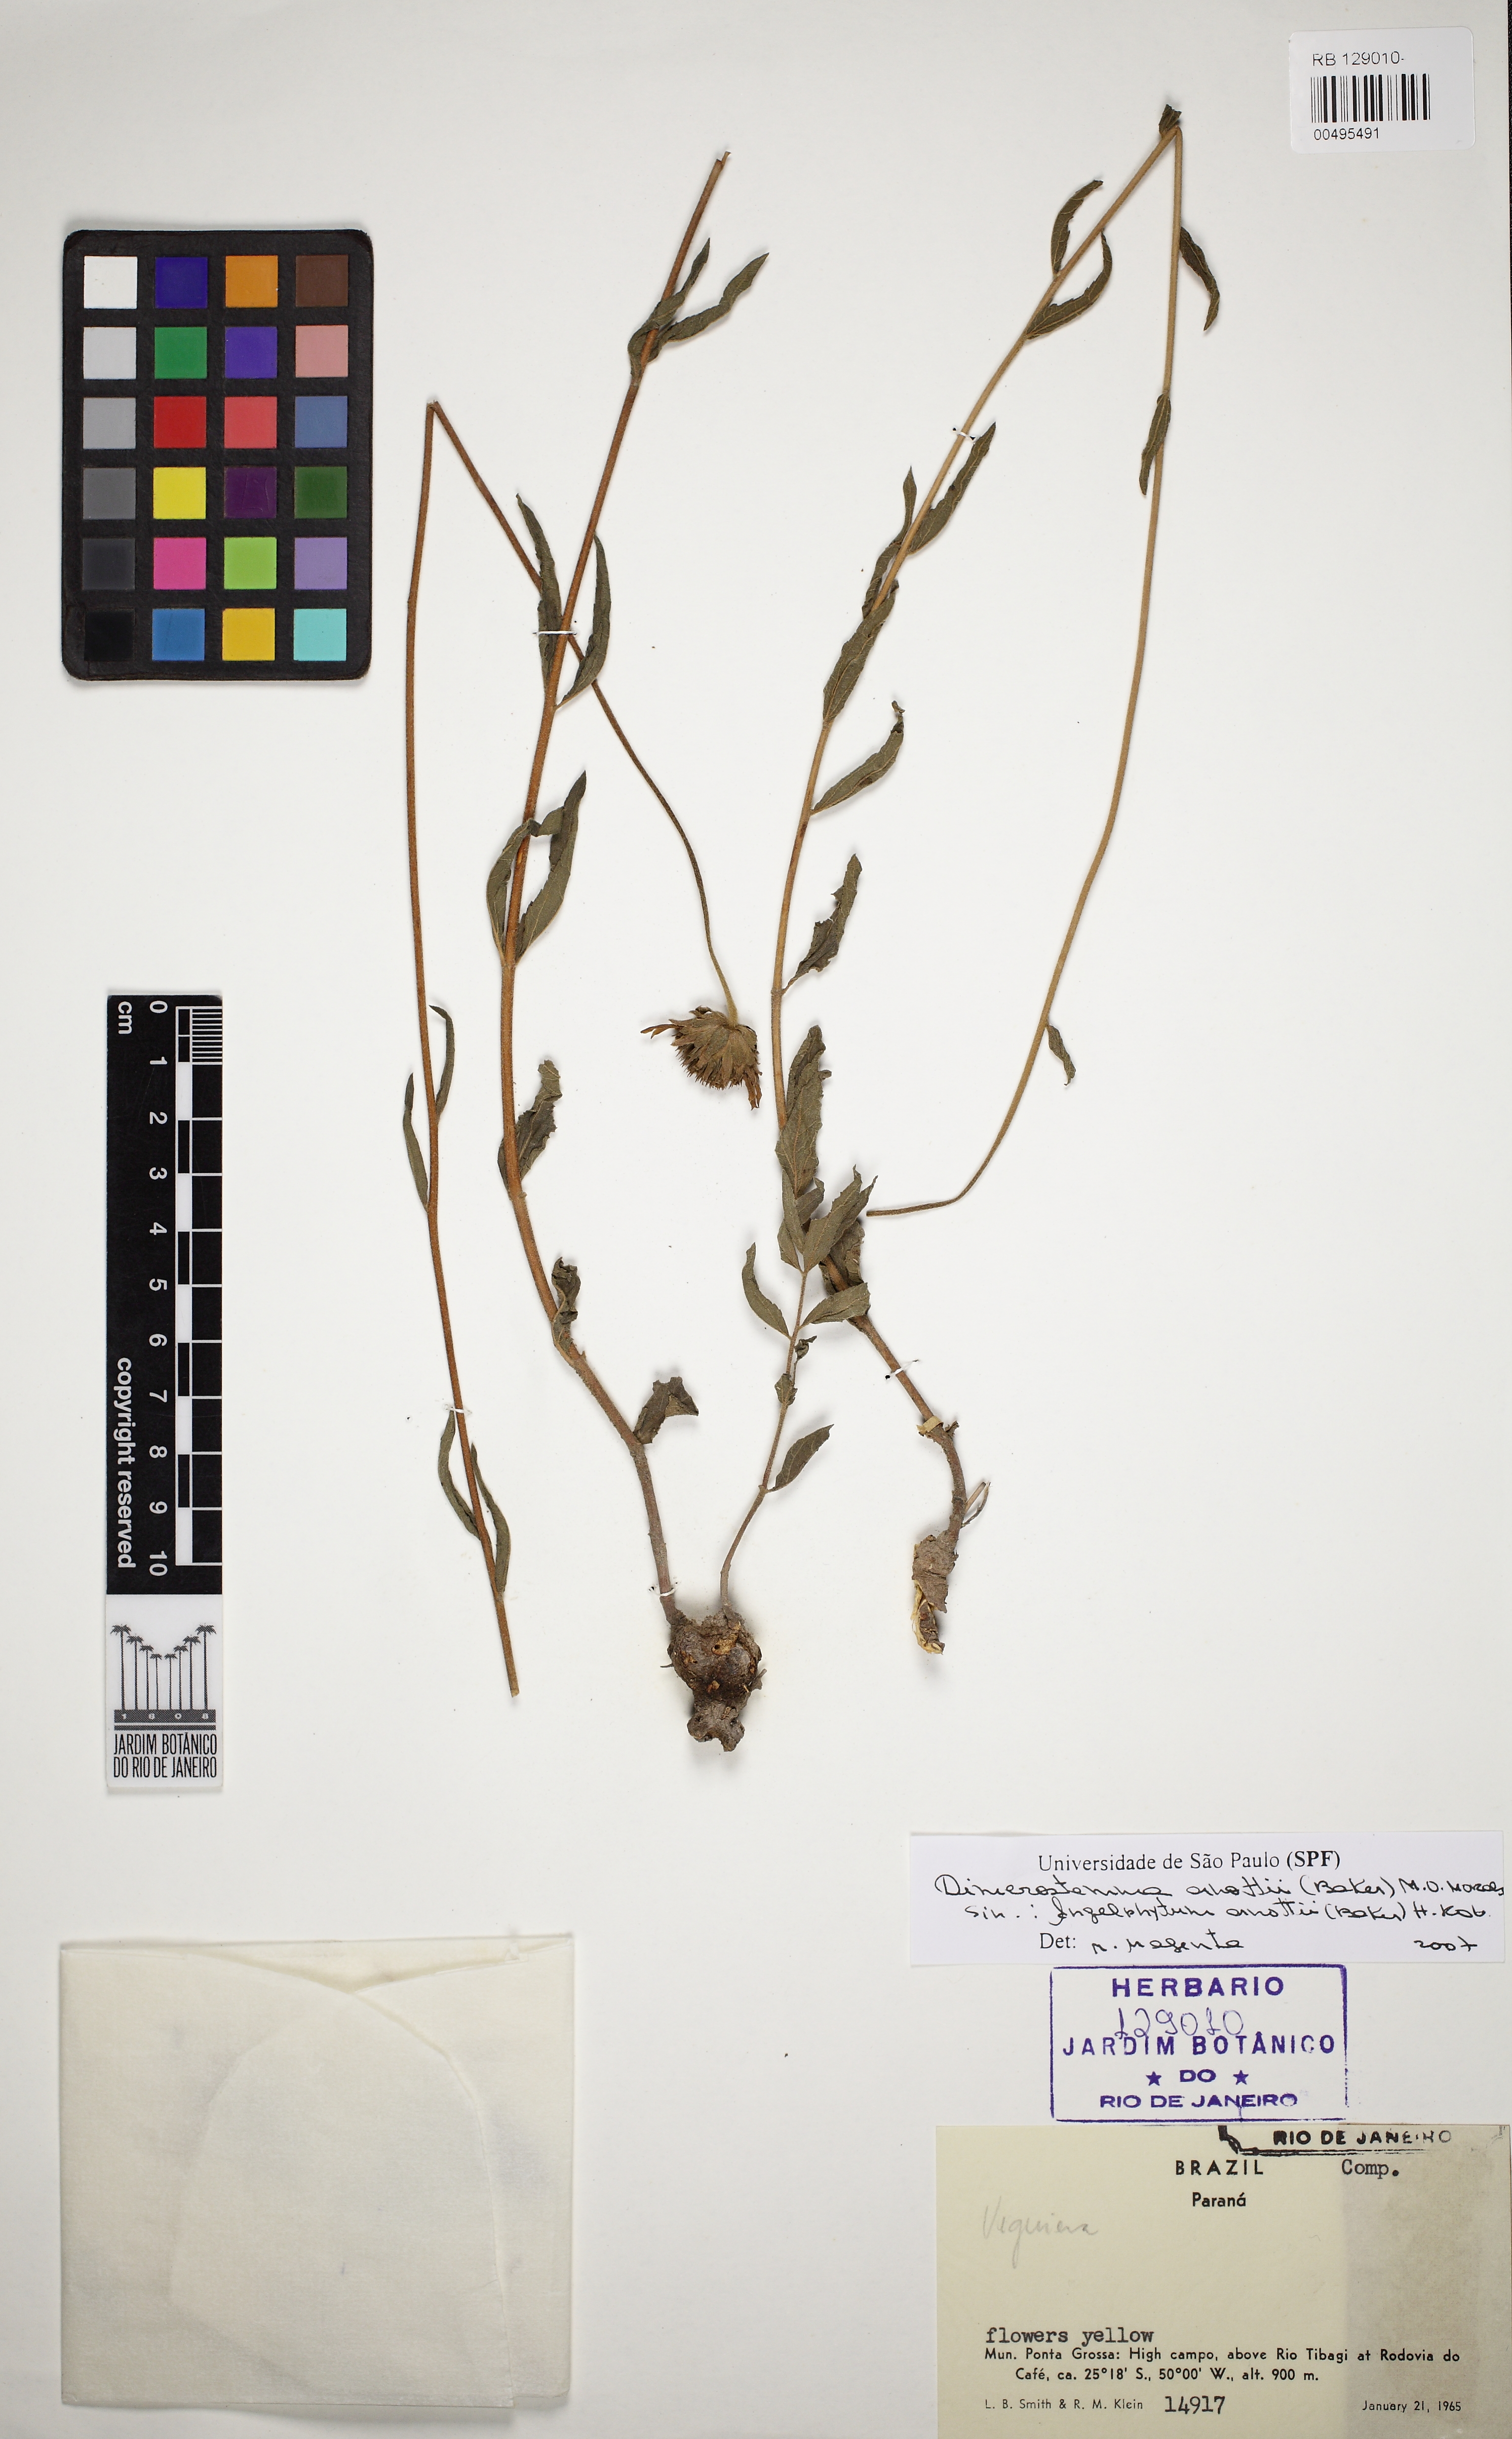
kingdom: Plantae
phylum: Tracheophyta
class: Magnoliopsida
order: Asterales
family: Asteraceae
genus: Dimerostemma
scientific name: Dimerostemma arnottii
